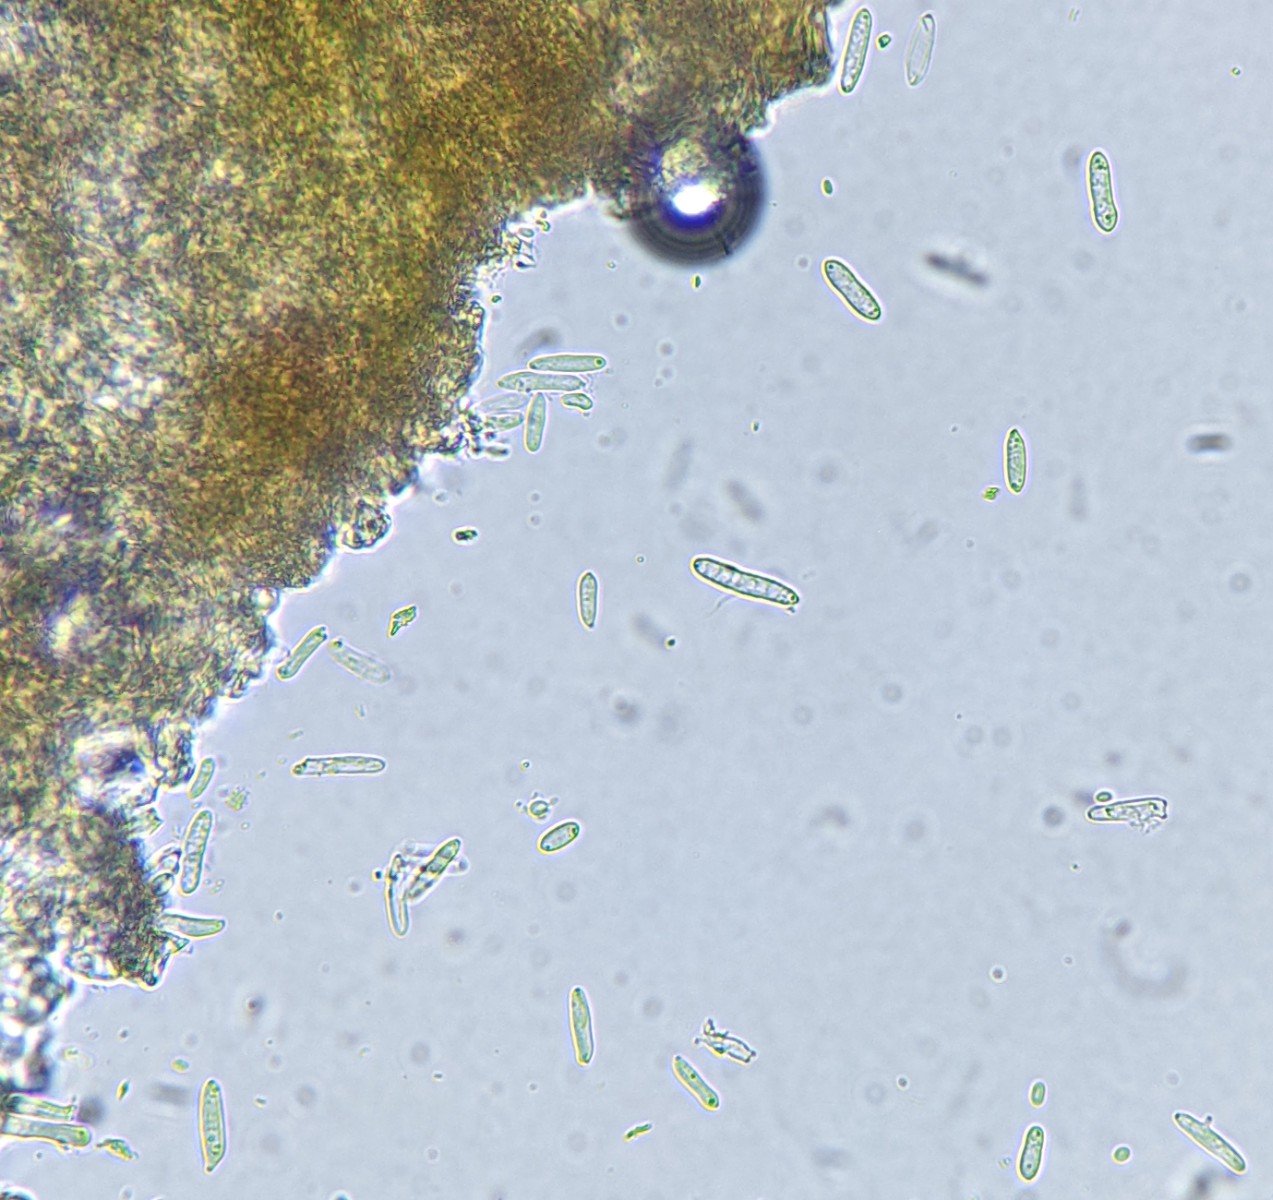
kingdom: Fungi
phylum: Ascomycota
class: Dothideomycetes
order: Mycosphaerellales
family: Mycosphaerellaceae
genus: Pseudocercospora
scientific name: Pseudocercospora gei
